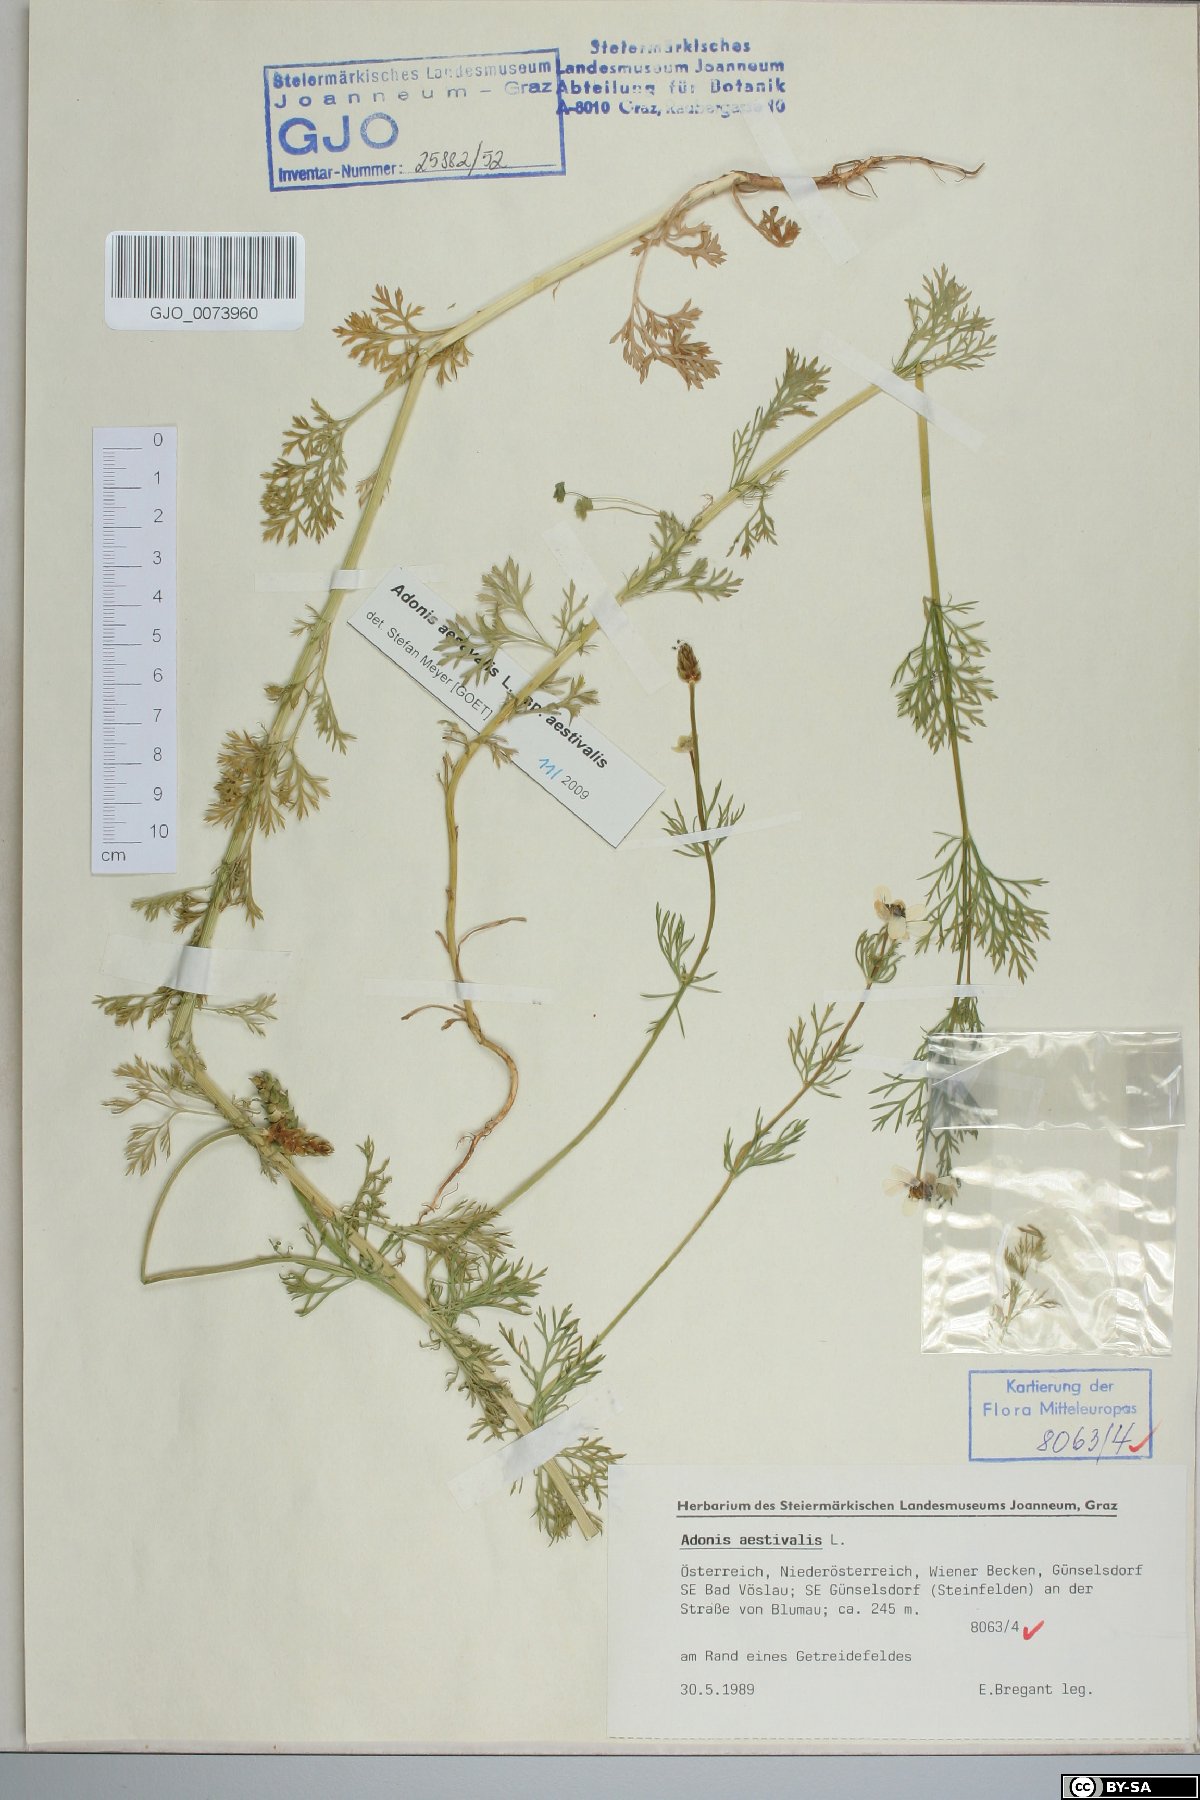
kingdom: Plantae
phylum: Tracheophyta
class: Magnoliopsida
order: Ranunculales
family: Ranunculaceae
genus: Adonis
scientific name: Adonis aestivalis
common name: Summer pheasant's-eye
